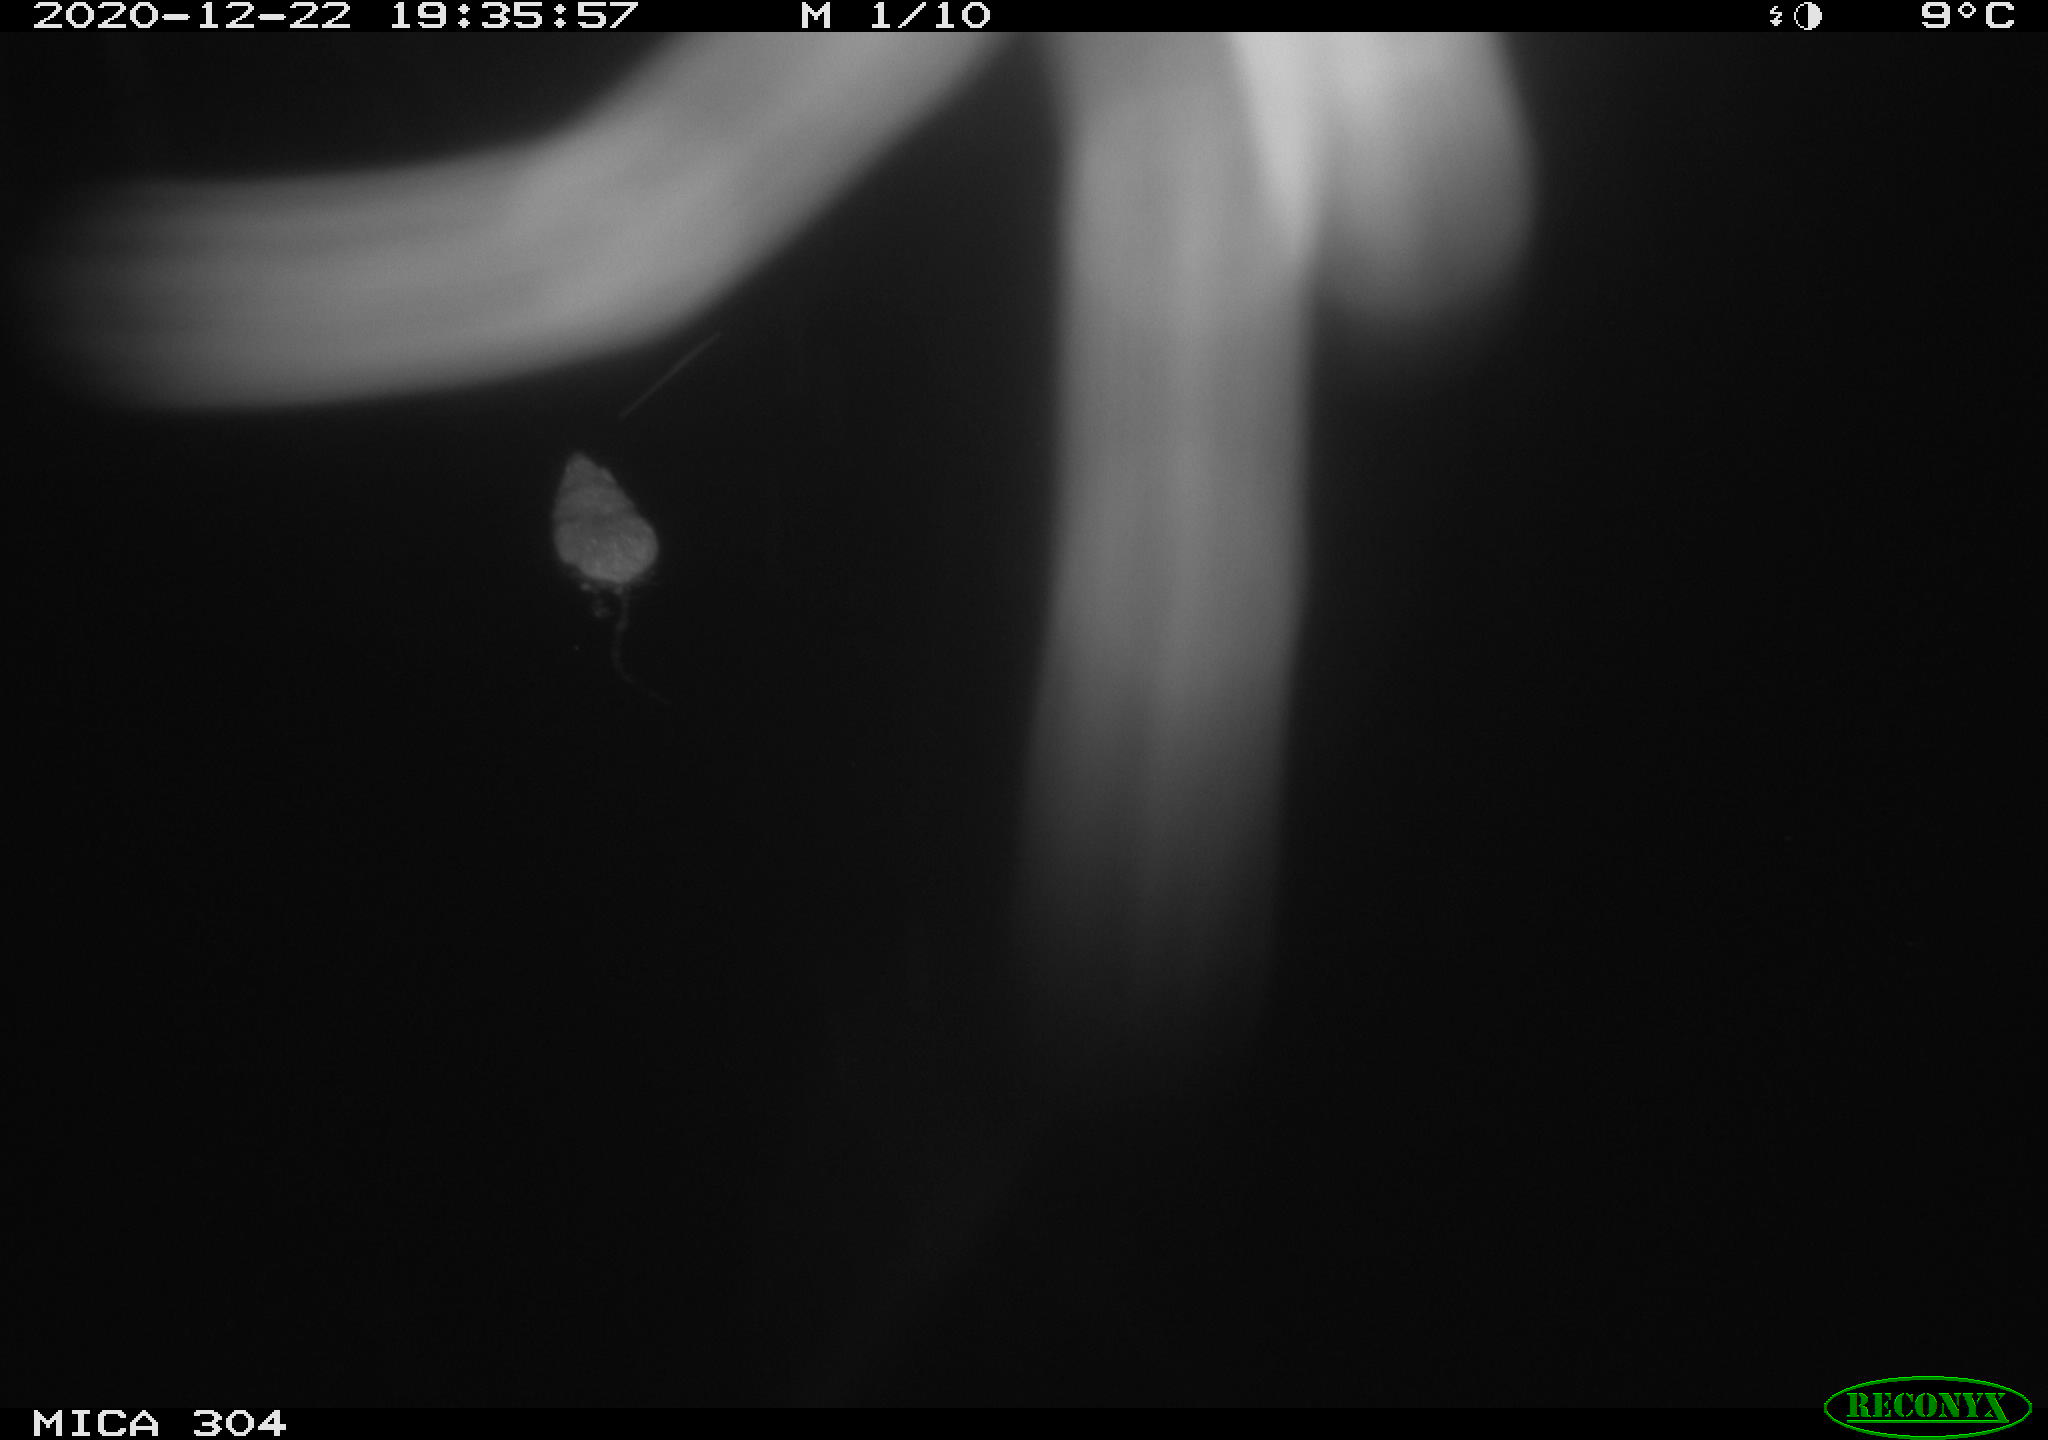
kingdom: Animalia
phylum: Chordata
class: Mammalia
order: Rodentia
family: Muridae
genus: Rattus
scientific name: Rattus norvegicus
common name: Brown rat
